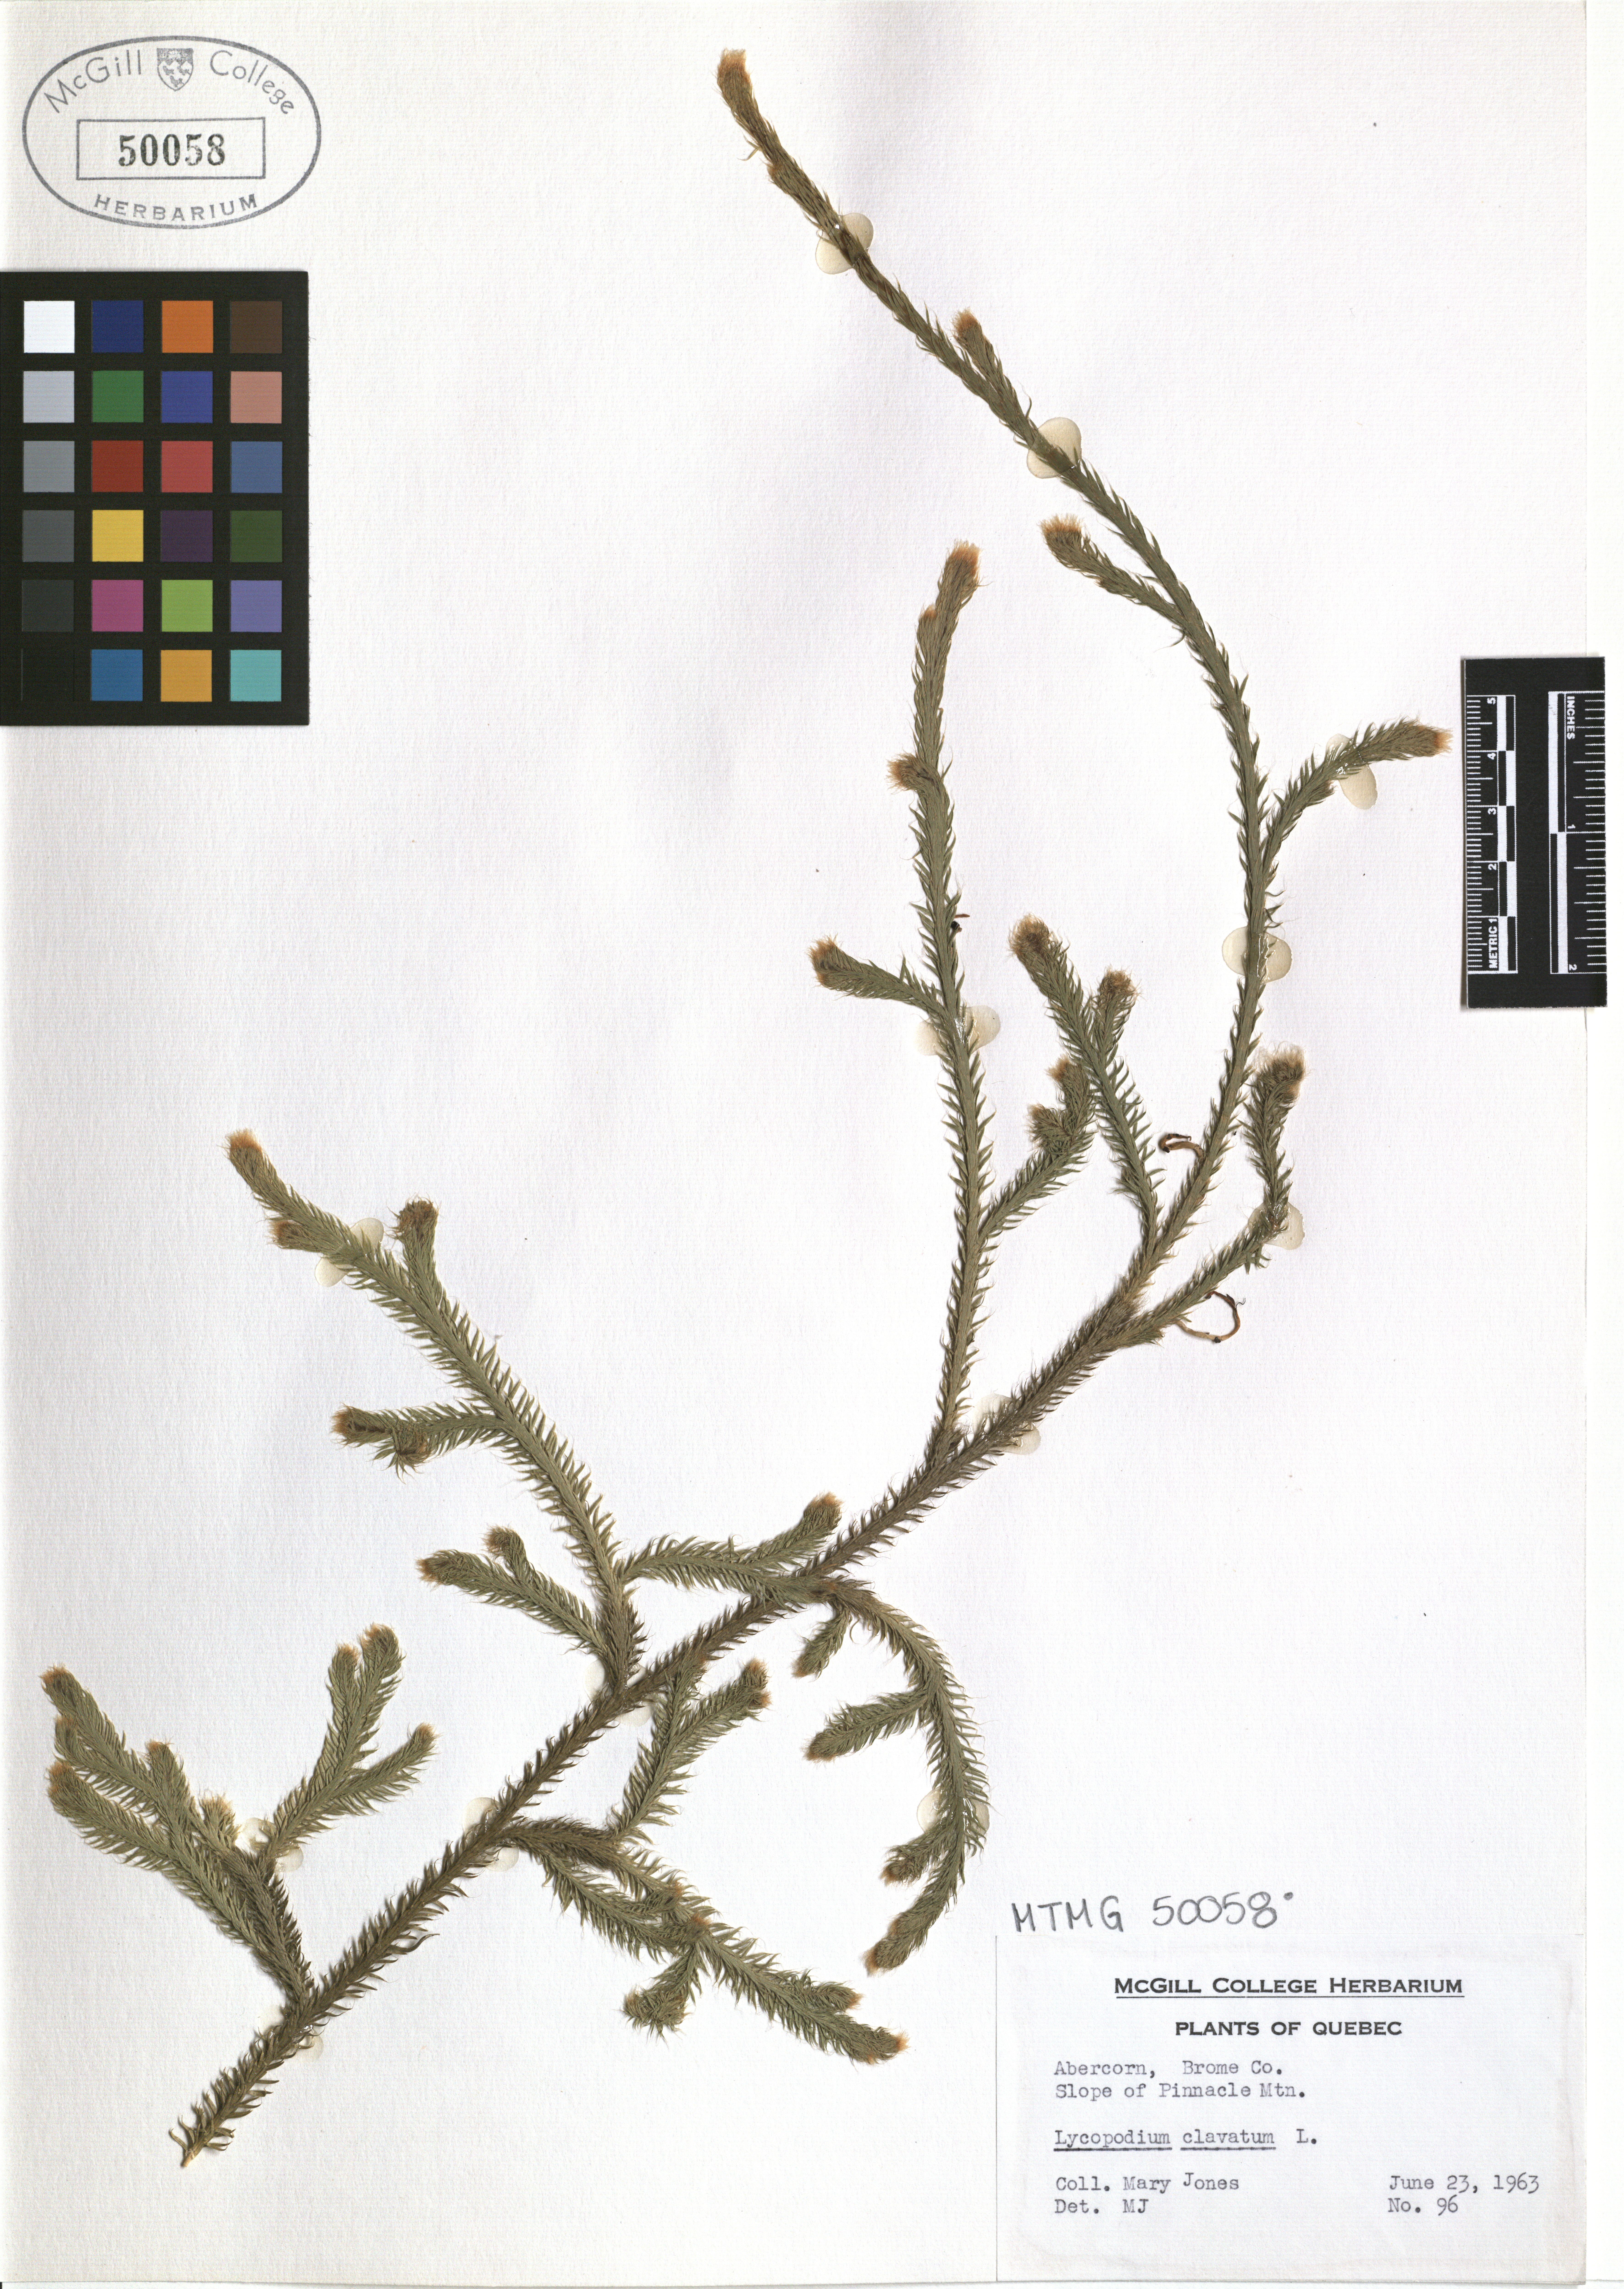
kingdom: Plantae
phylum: Tracheophyta
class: Lycopodiopsida
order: Lycopodiales
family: Lycopodiaceae
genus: Lycopodium
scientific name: Lycopodium clavatum
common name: Stag's-horn clubmoss
